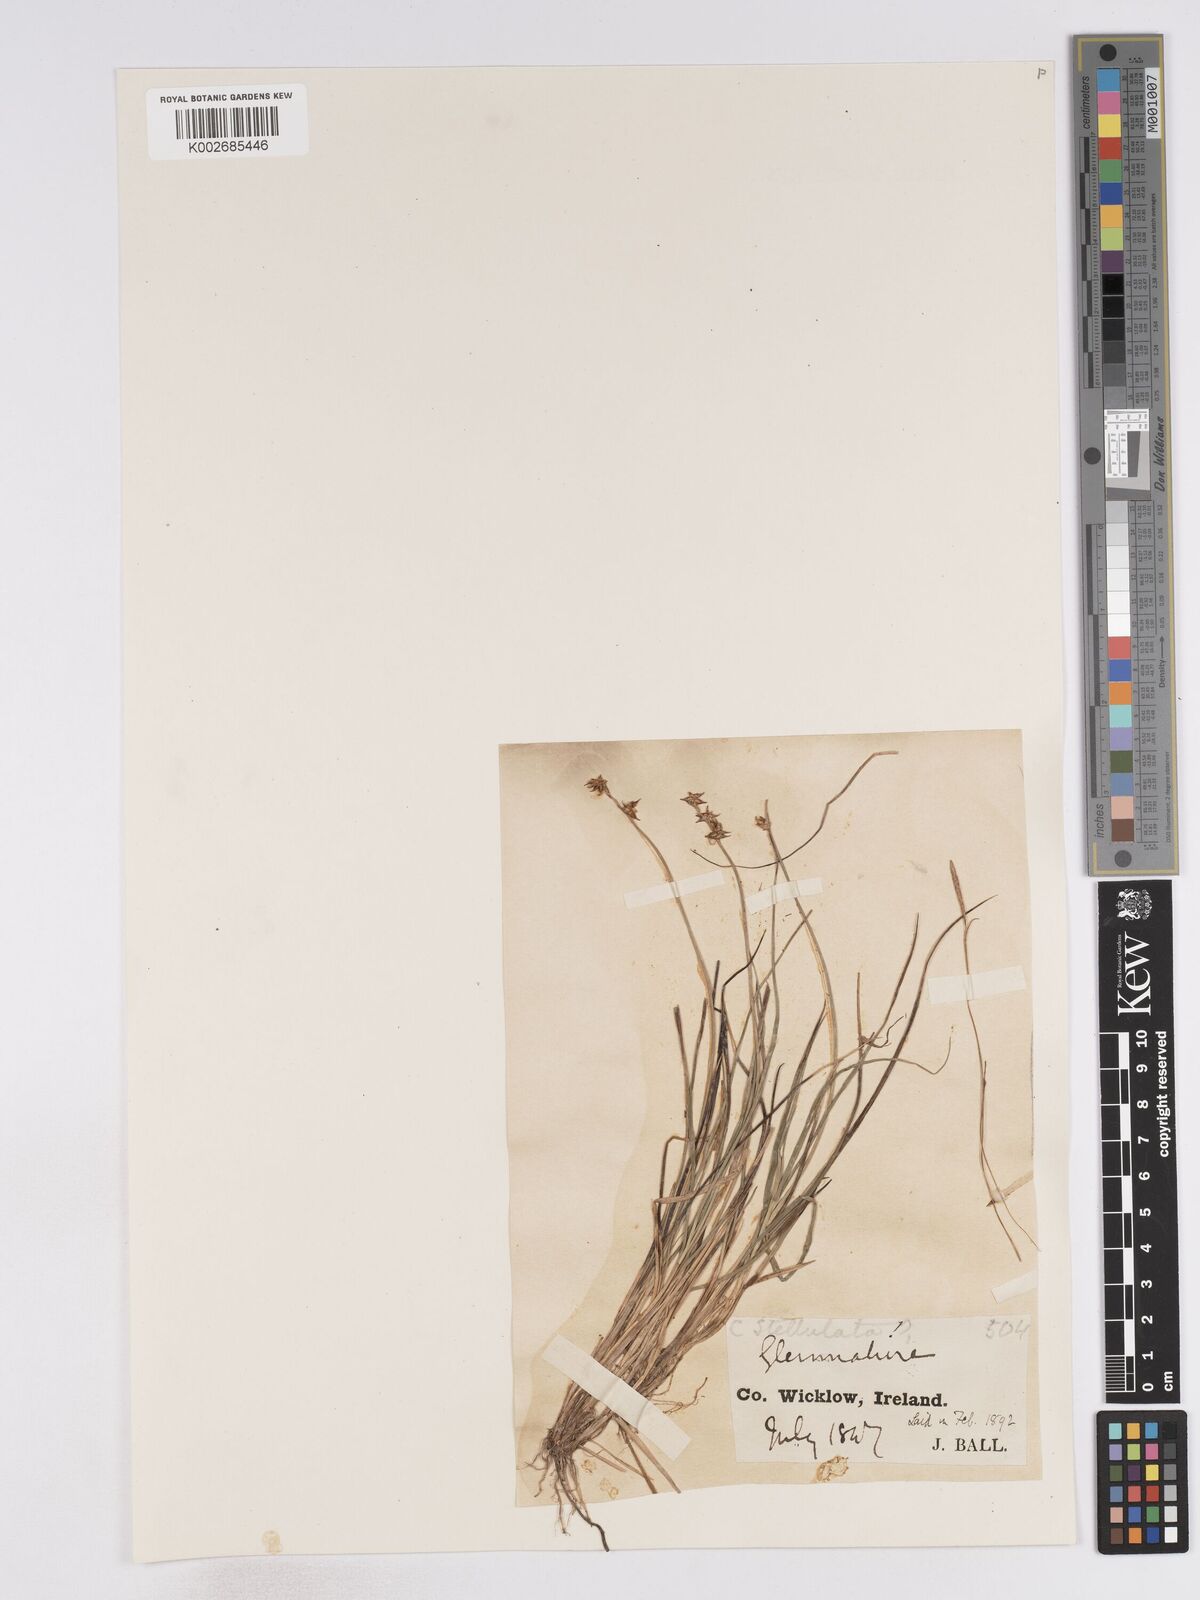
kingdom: Plantae
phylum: Tracheophyta
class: Liliopsida
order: Poales
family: Cyperaceae
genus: Carex
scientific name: Carex echinata
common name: Star sedge
